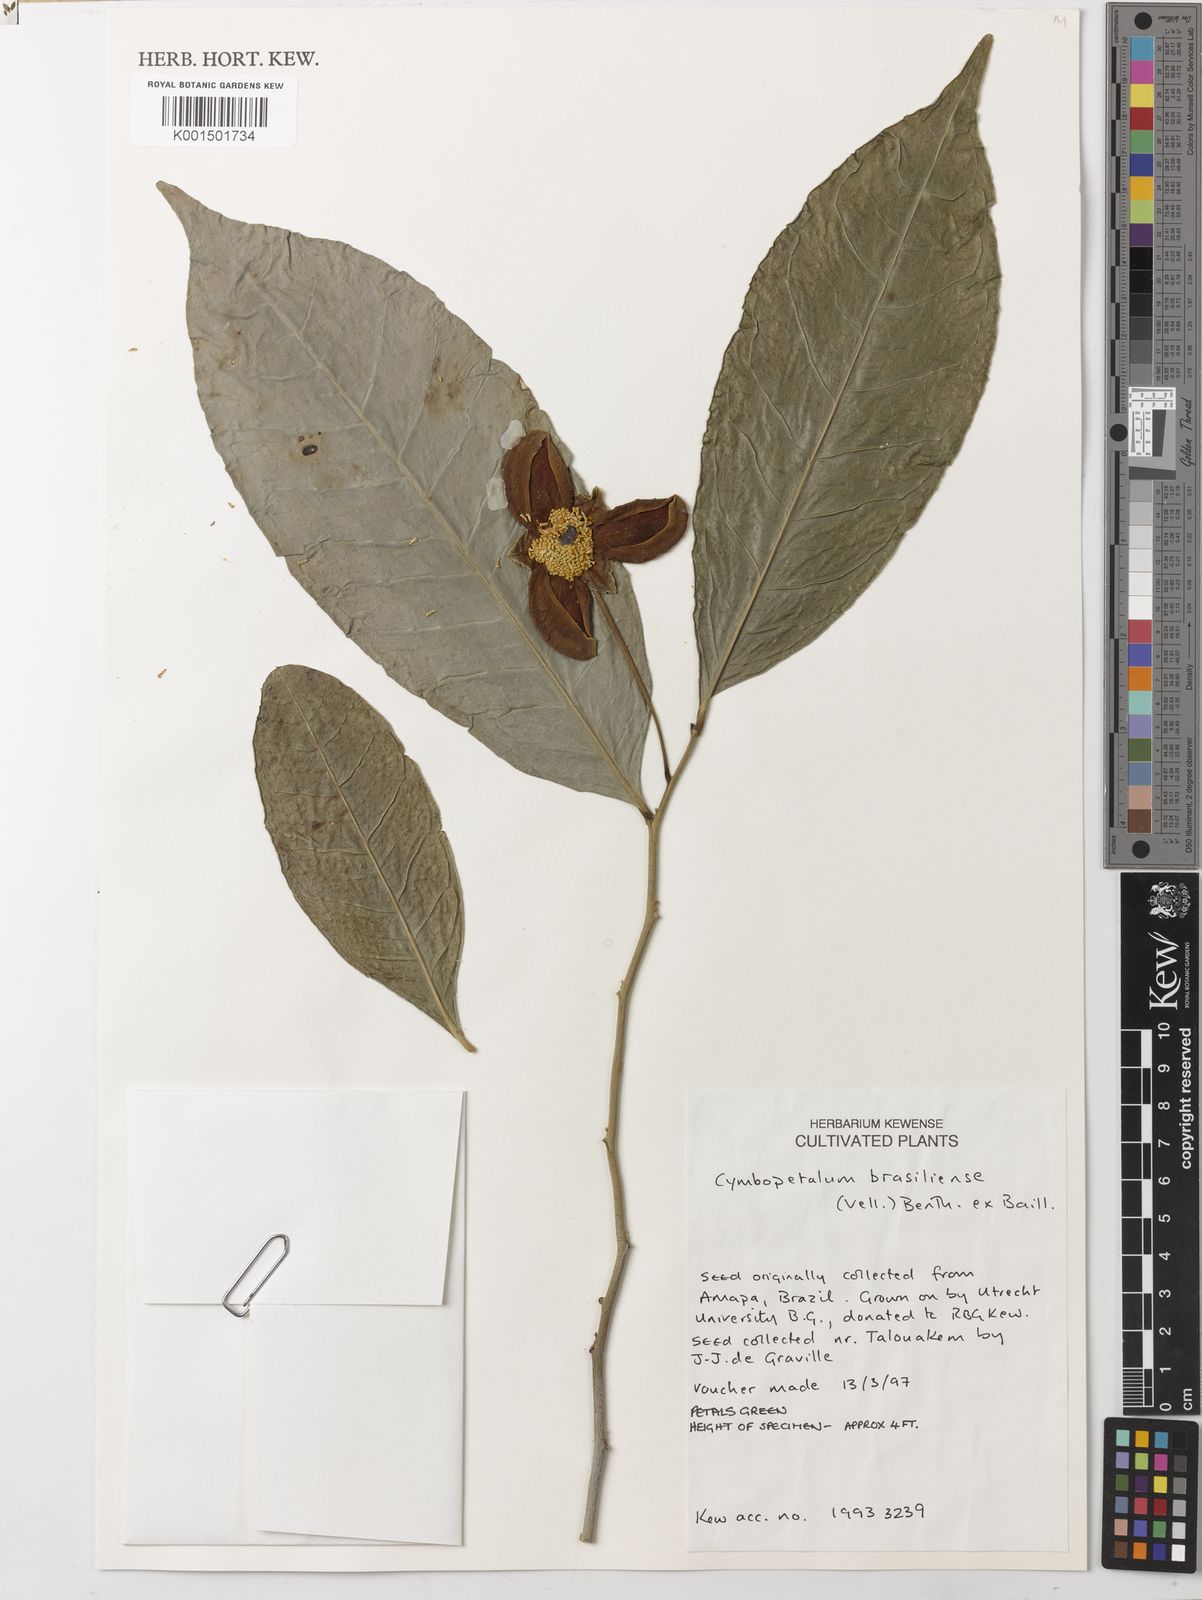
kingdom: Plantae
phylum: Tracheophyta
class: Magnoliopsida
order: Magnoliales
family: Annonaceae
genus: Cymbopetalum
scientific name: Cymbopetalum brasiliense
